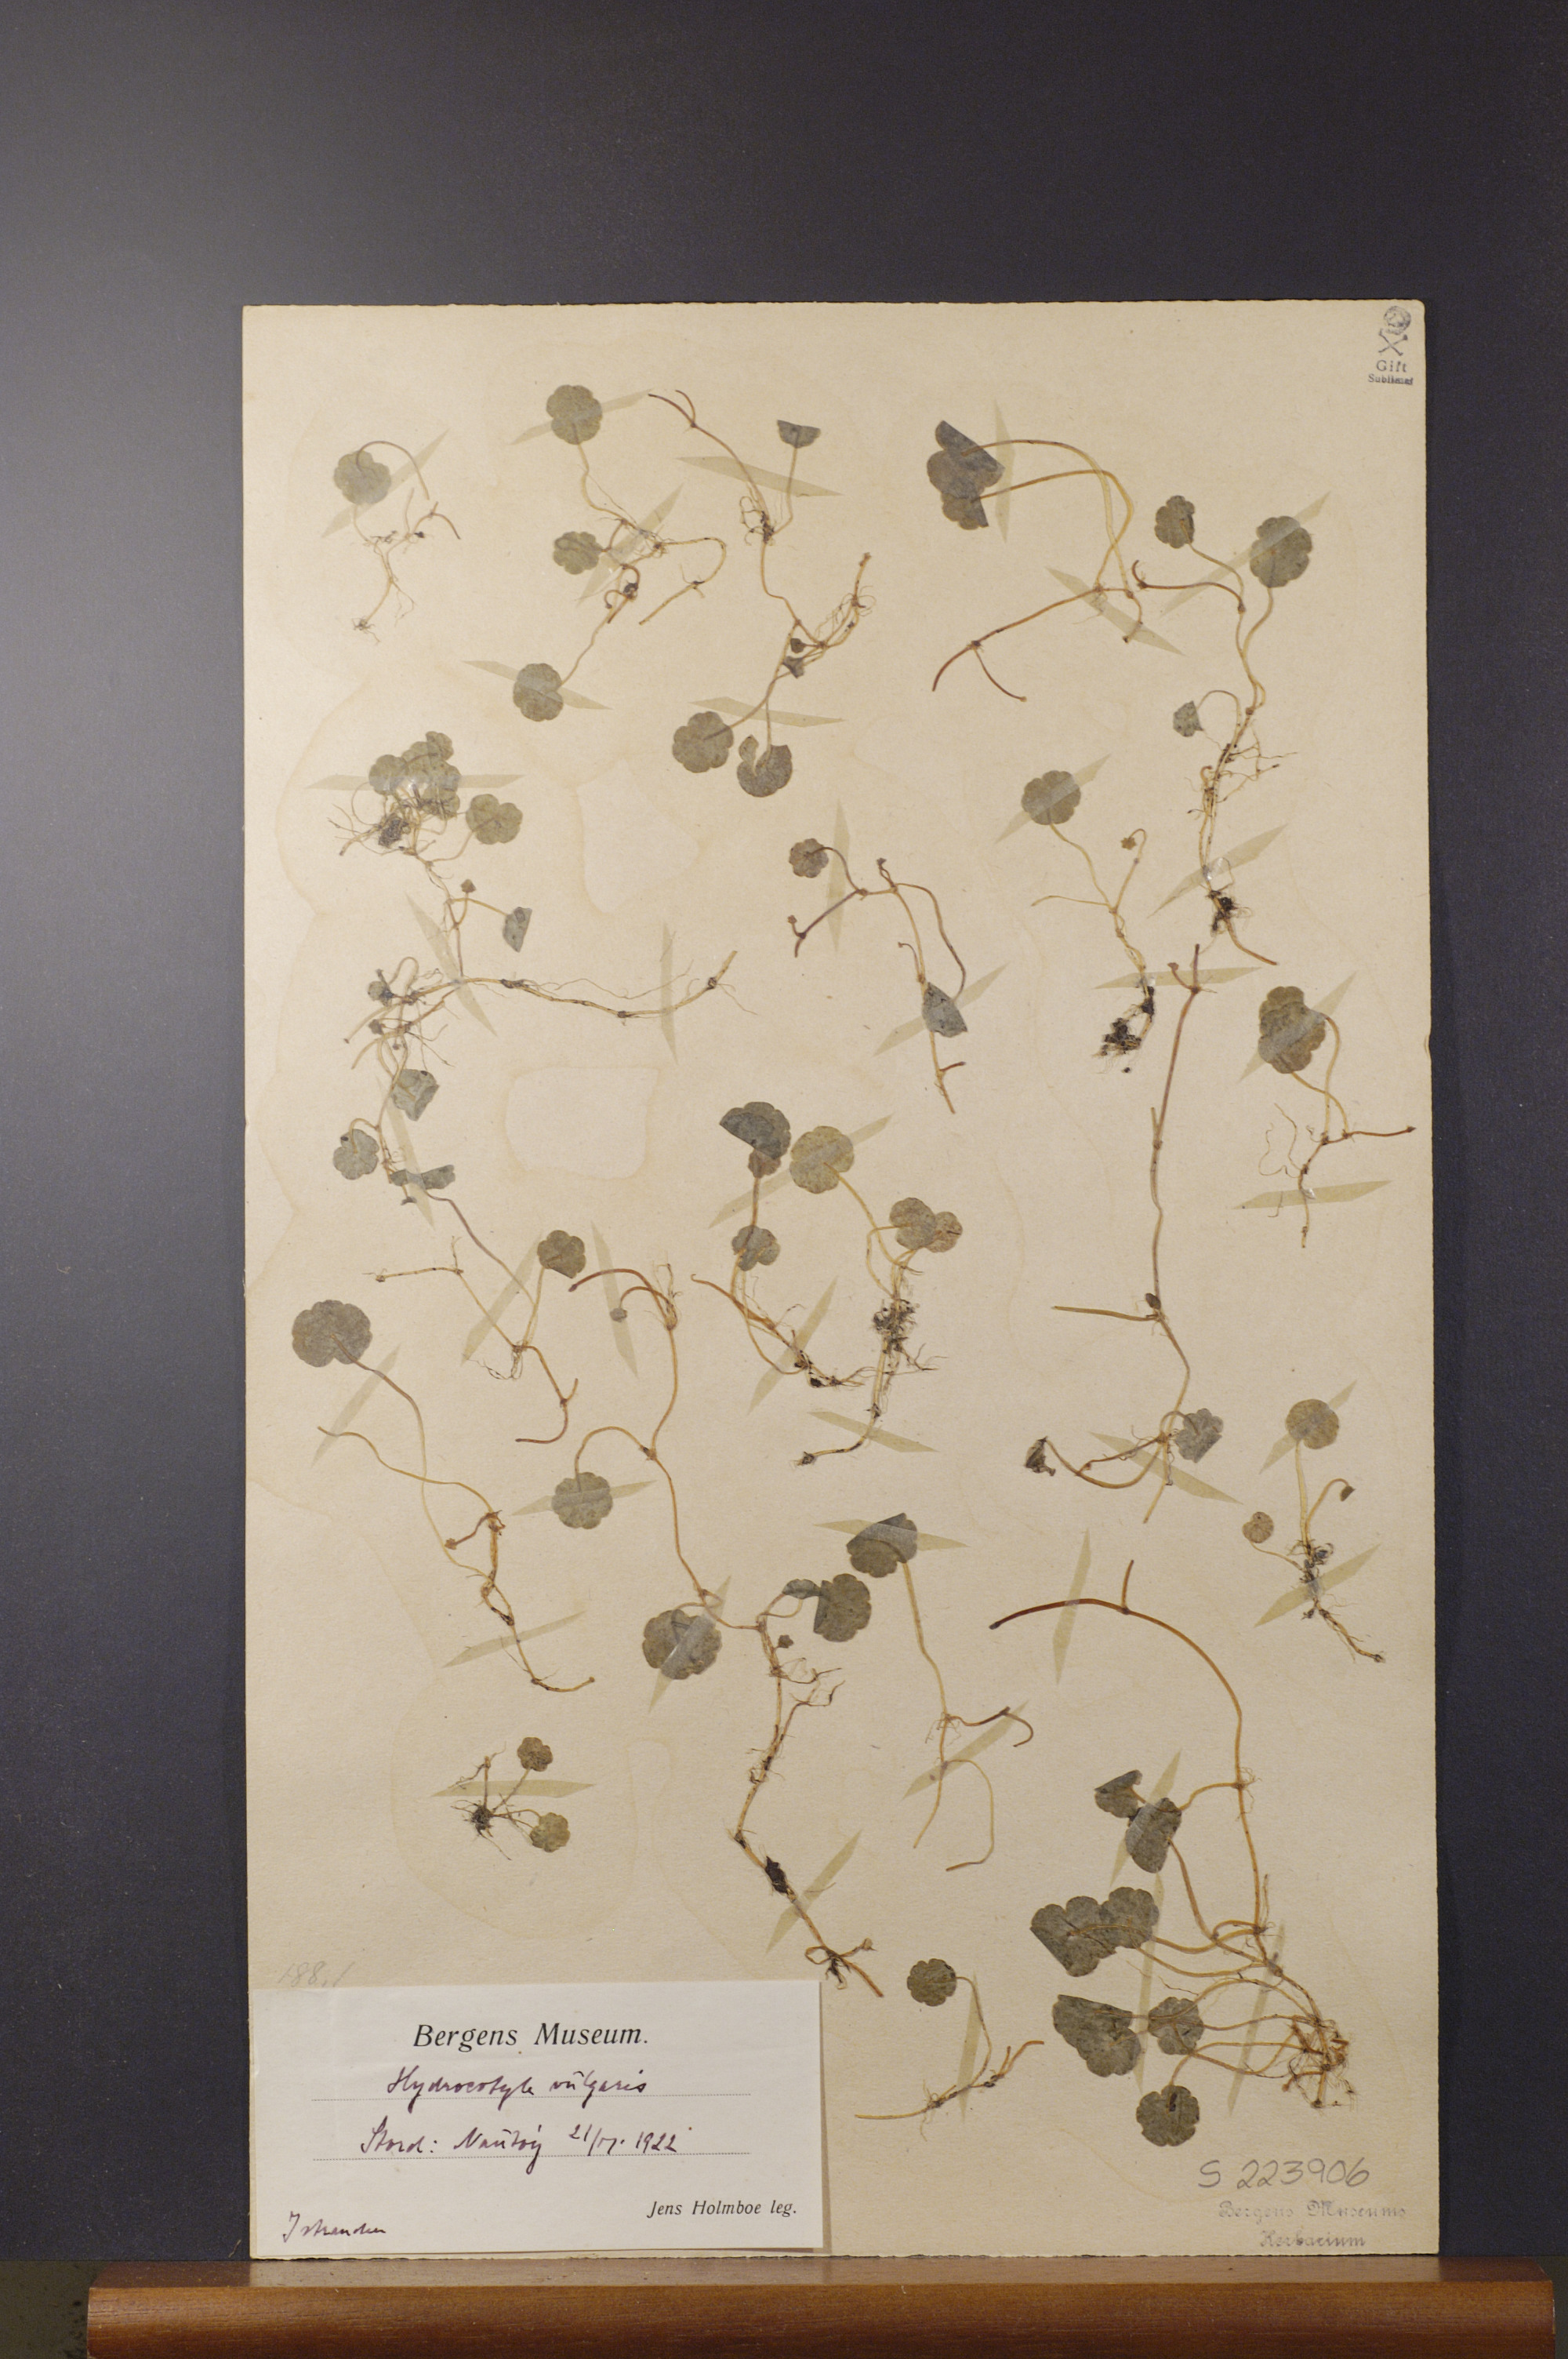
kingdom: Plantae
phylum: Tracheophyta
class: Magnoliopsida
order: Apiales
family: Araliaceae
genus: Hydrocotyle
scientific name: Hydrocotyle vulgaris
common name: Marsh pennywort
